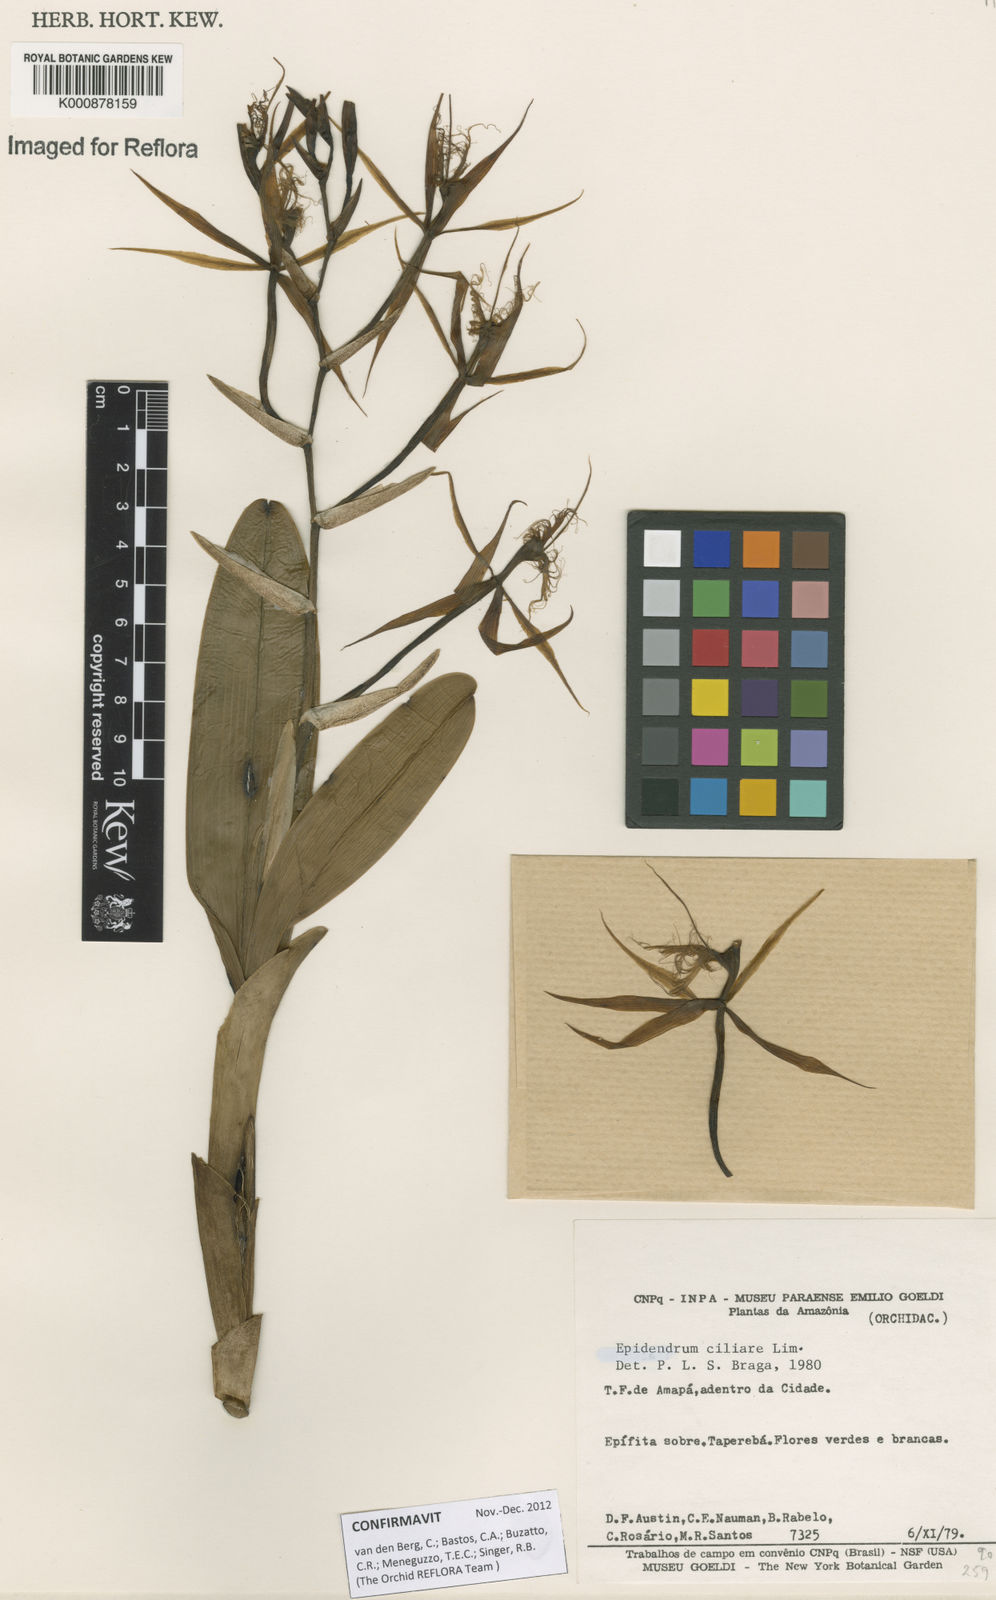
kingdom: Plantae
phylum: Tracheophyta
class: Liliopsida
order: Asparagales
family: Orchidaceae
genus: Epidendrum
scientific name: Epidendrum ciliare
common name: Eyelash orchid
